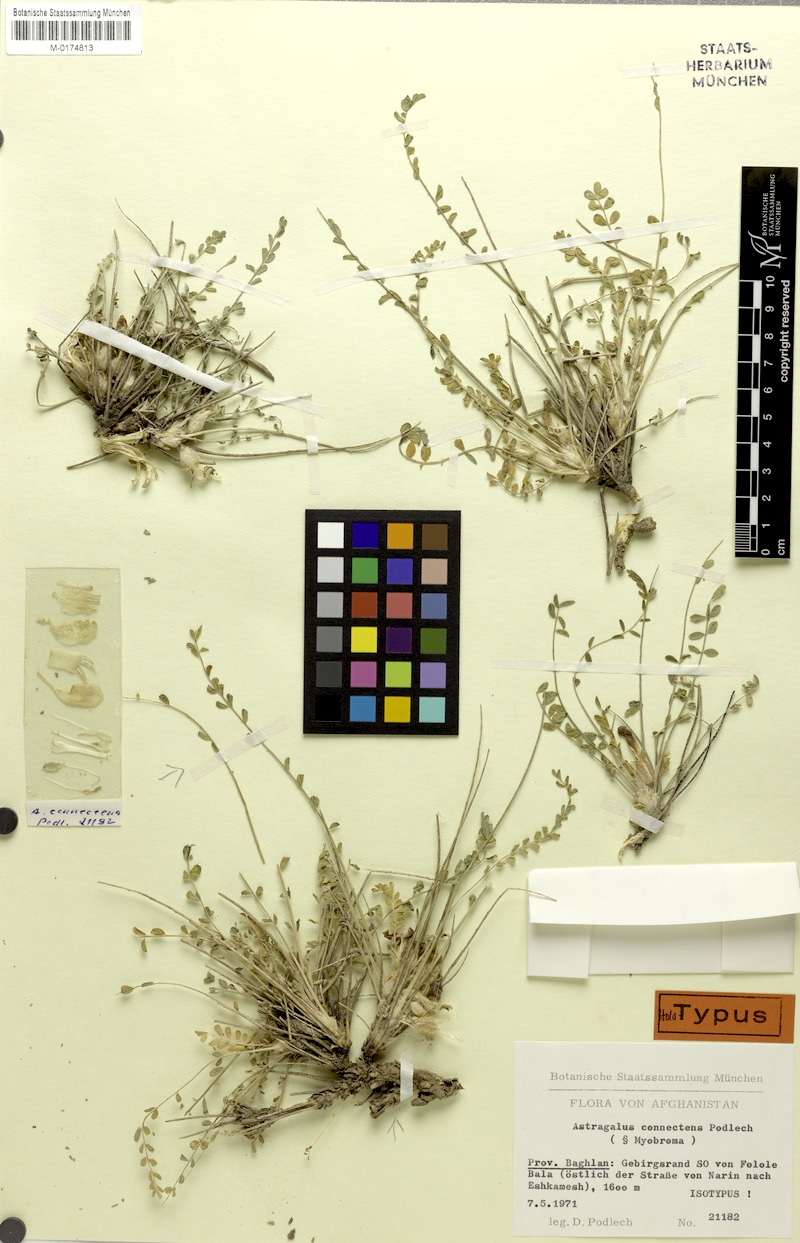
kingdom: Plantae
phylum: Tracheophyta
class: Magnoliopsida
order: Fabales
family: Fabaceae
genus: Astragalus
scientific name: Astragalus connectens
